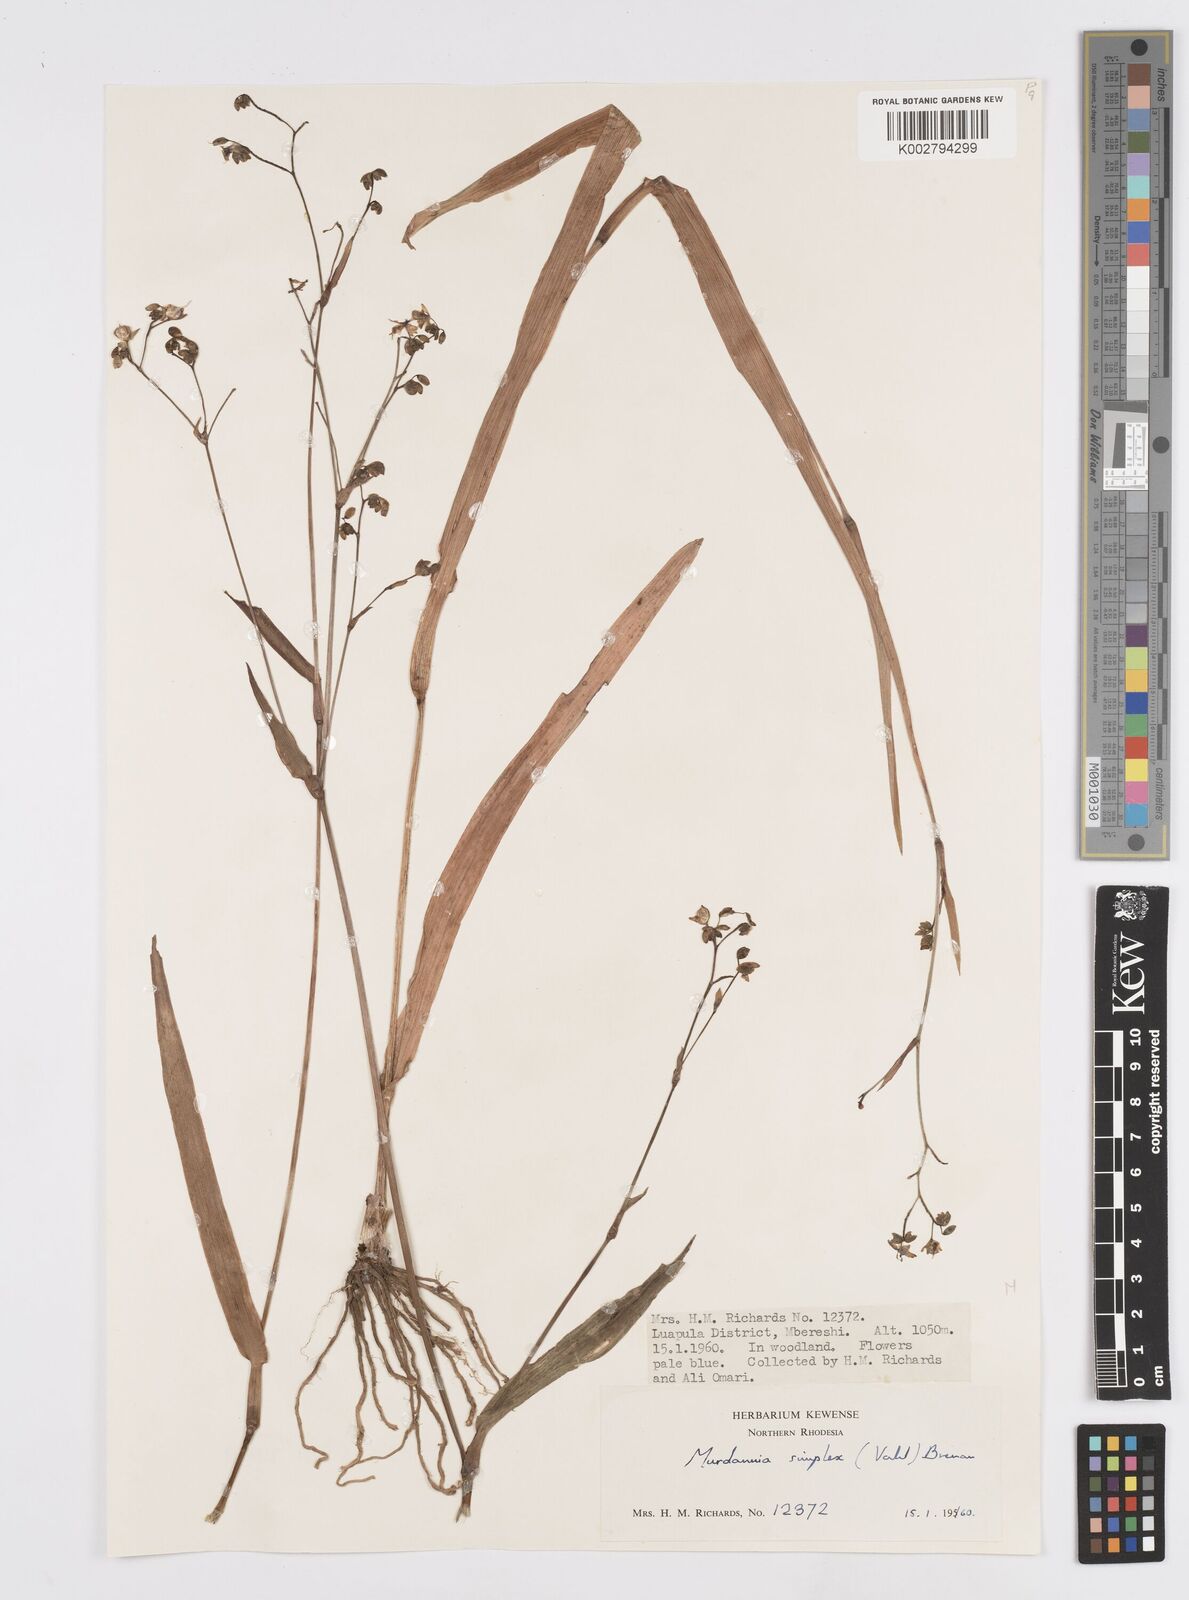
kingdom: Plantae
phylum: Tracheophyta
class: Liliopsida
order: Commelinales
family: Commelinaceae
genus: Murdannia
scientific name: Murdannia simplex
